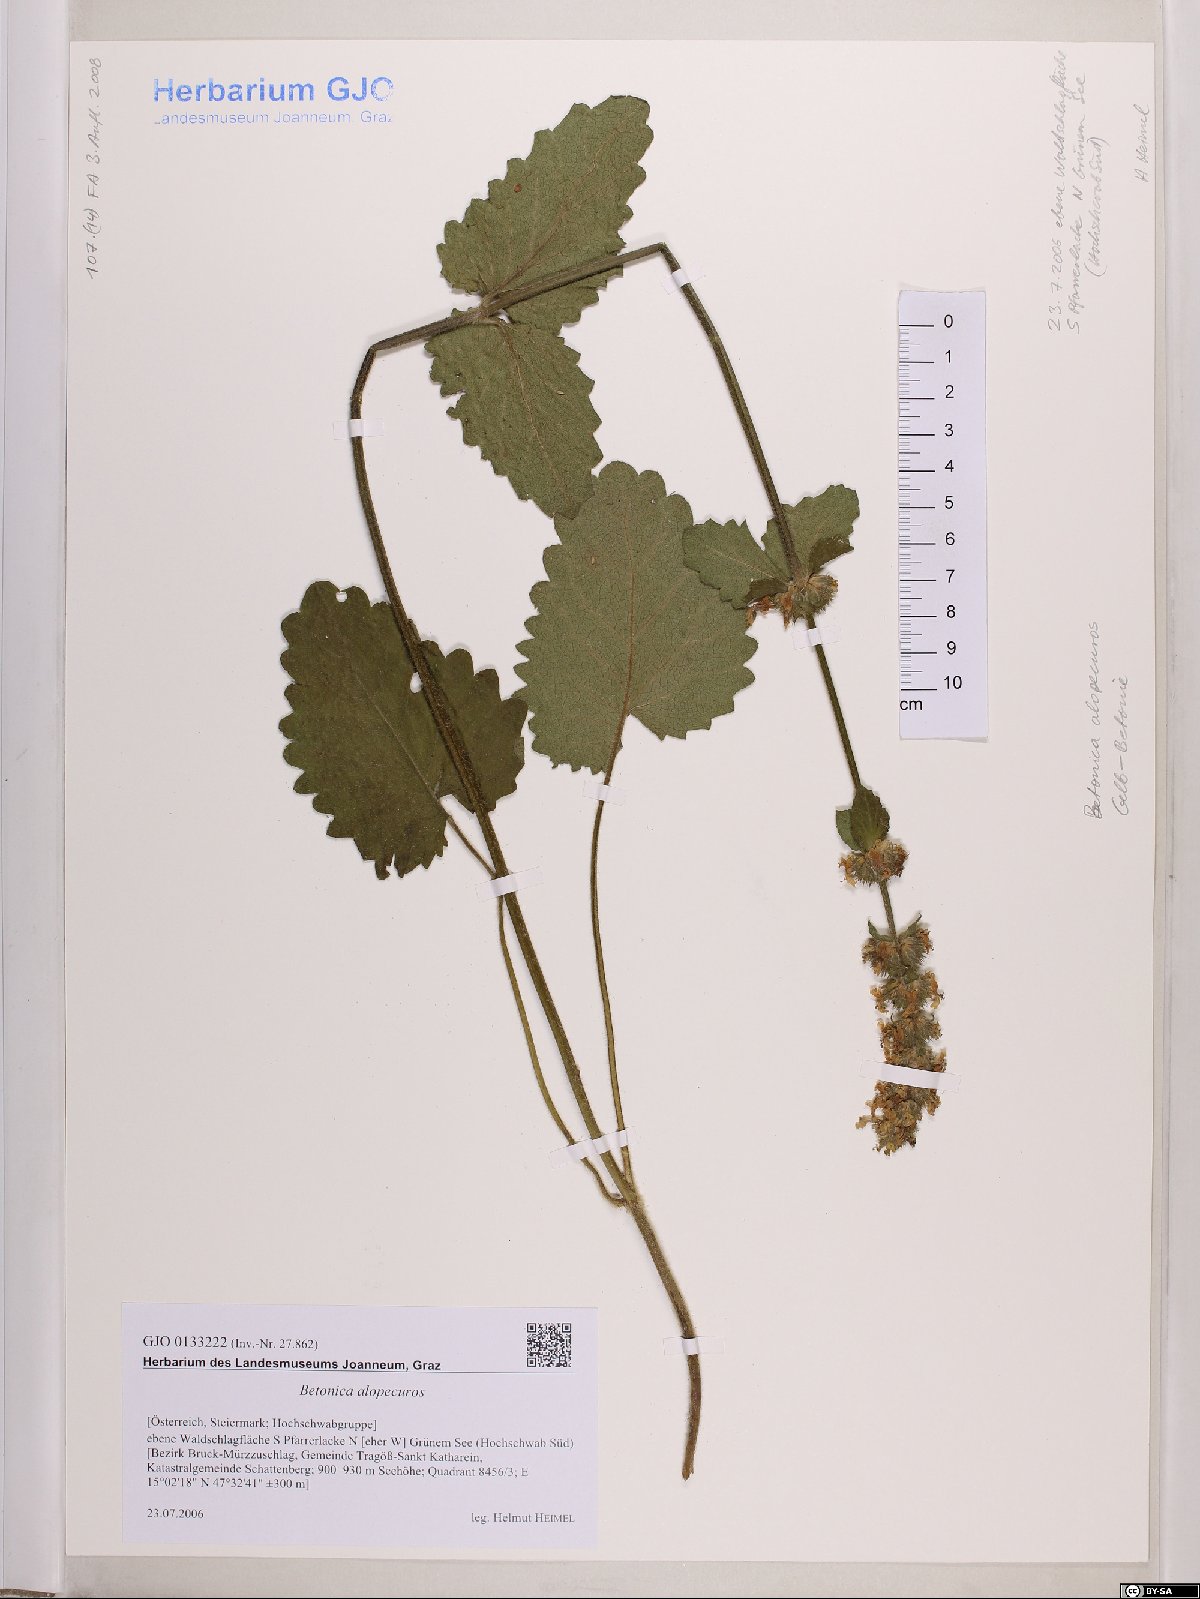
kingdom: Plantae
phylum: Tracheophyta
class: Magnoliopsida
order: Lamiales
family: Lamiaceae
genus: Betonica
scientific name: Betonica alopecuros
